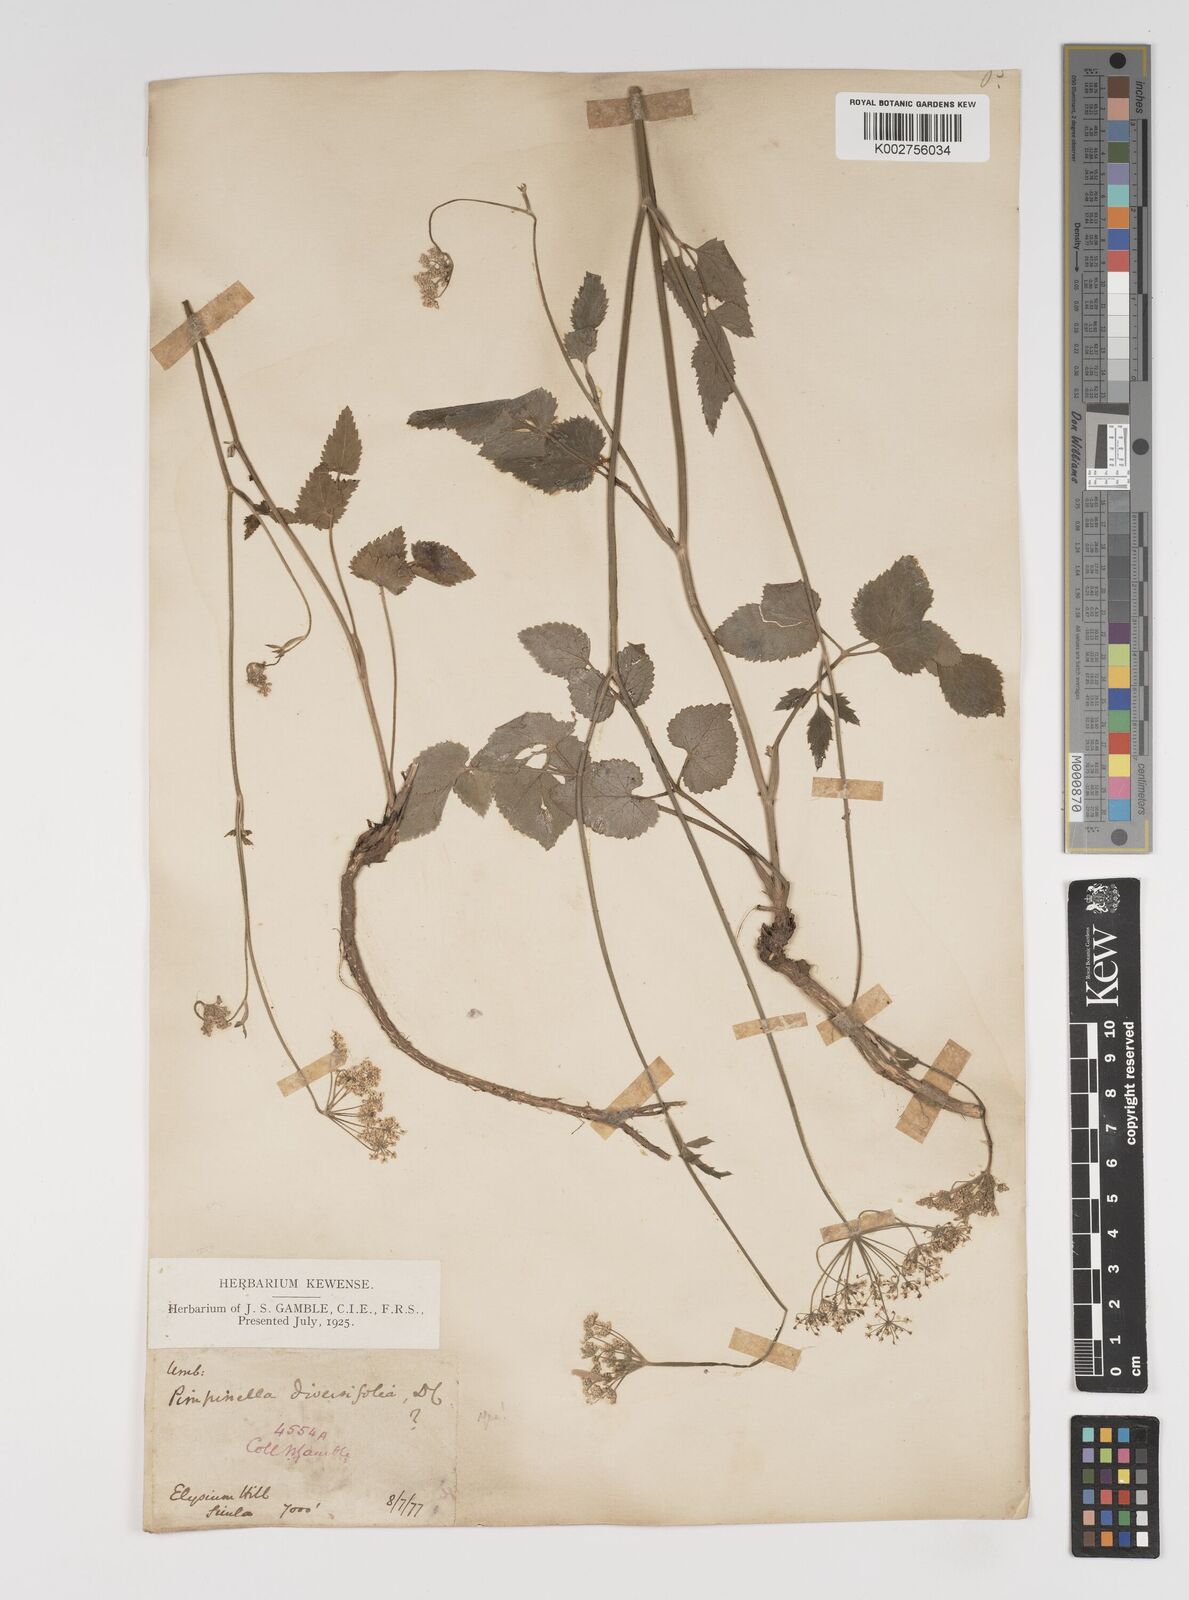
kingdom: Plantae
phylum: Tracheophyta
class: Magnoliopsida
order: Apiales
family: Apiaceae
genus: Pimpinella
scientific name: Pimpinella diversifolia
